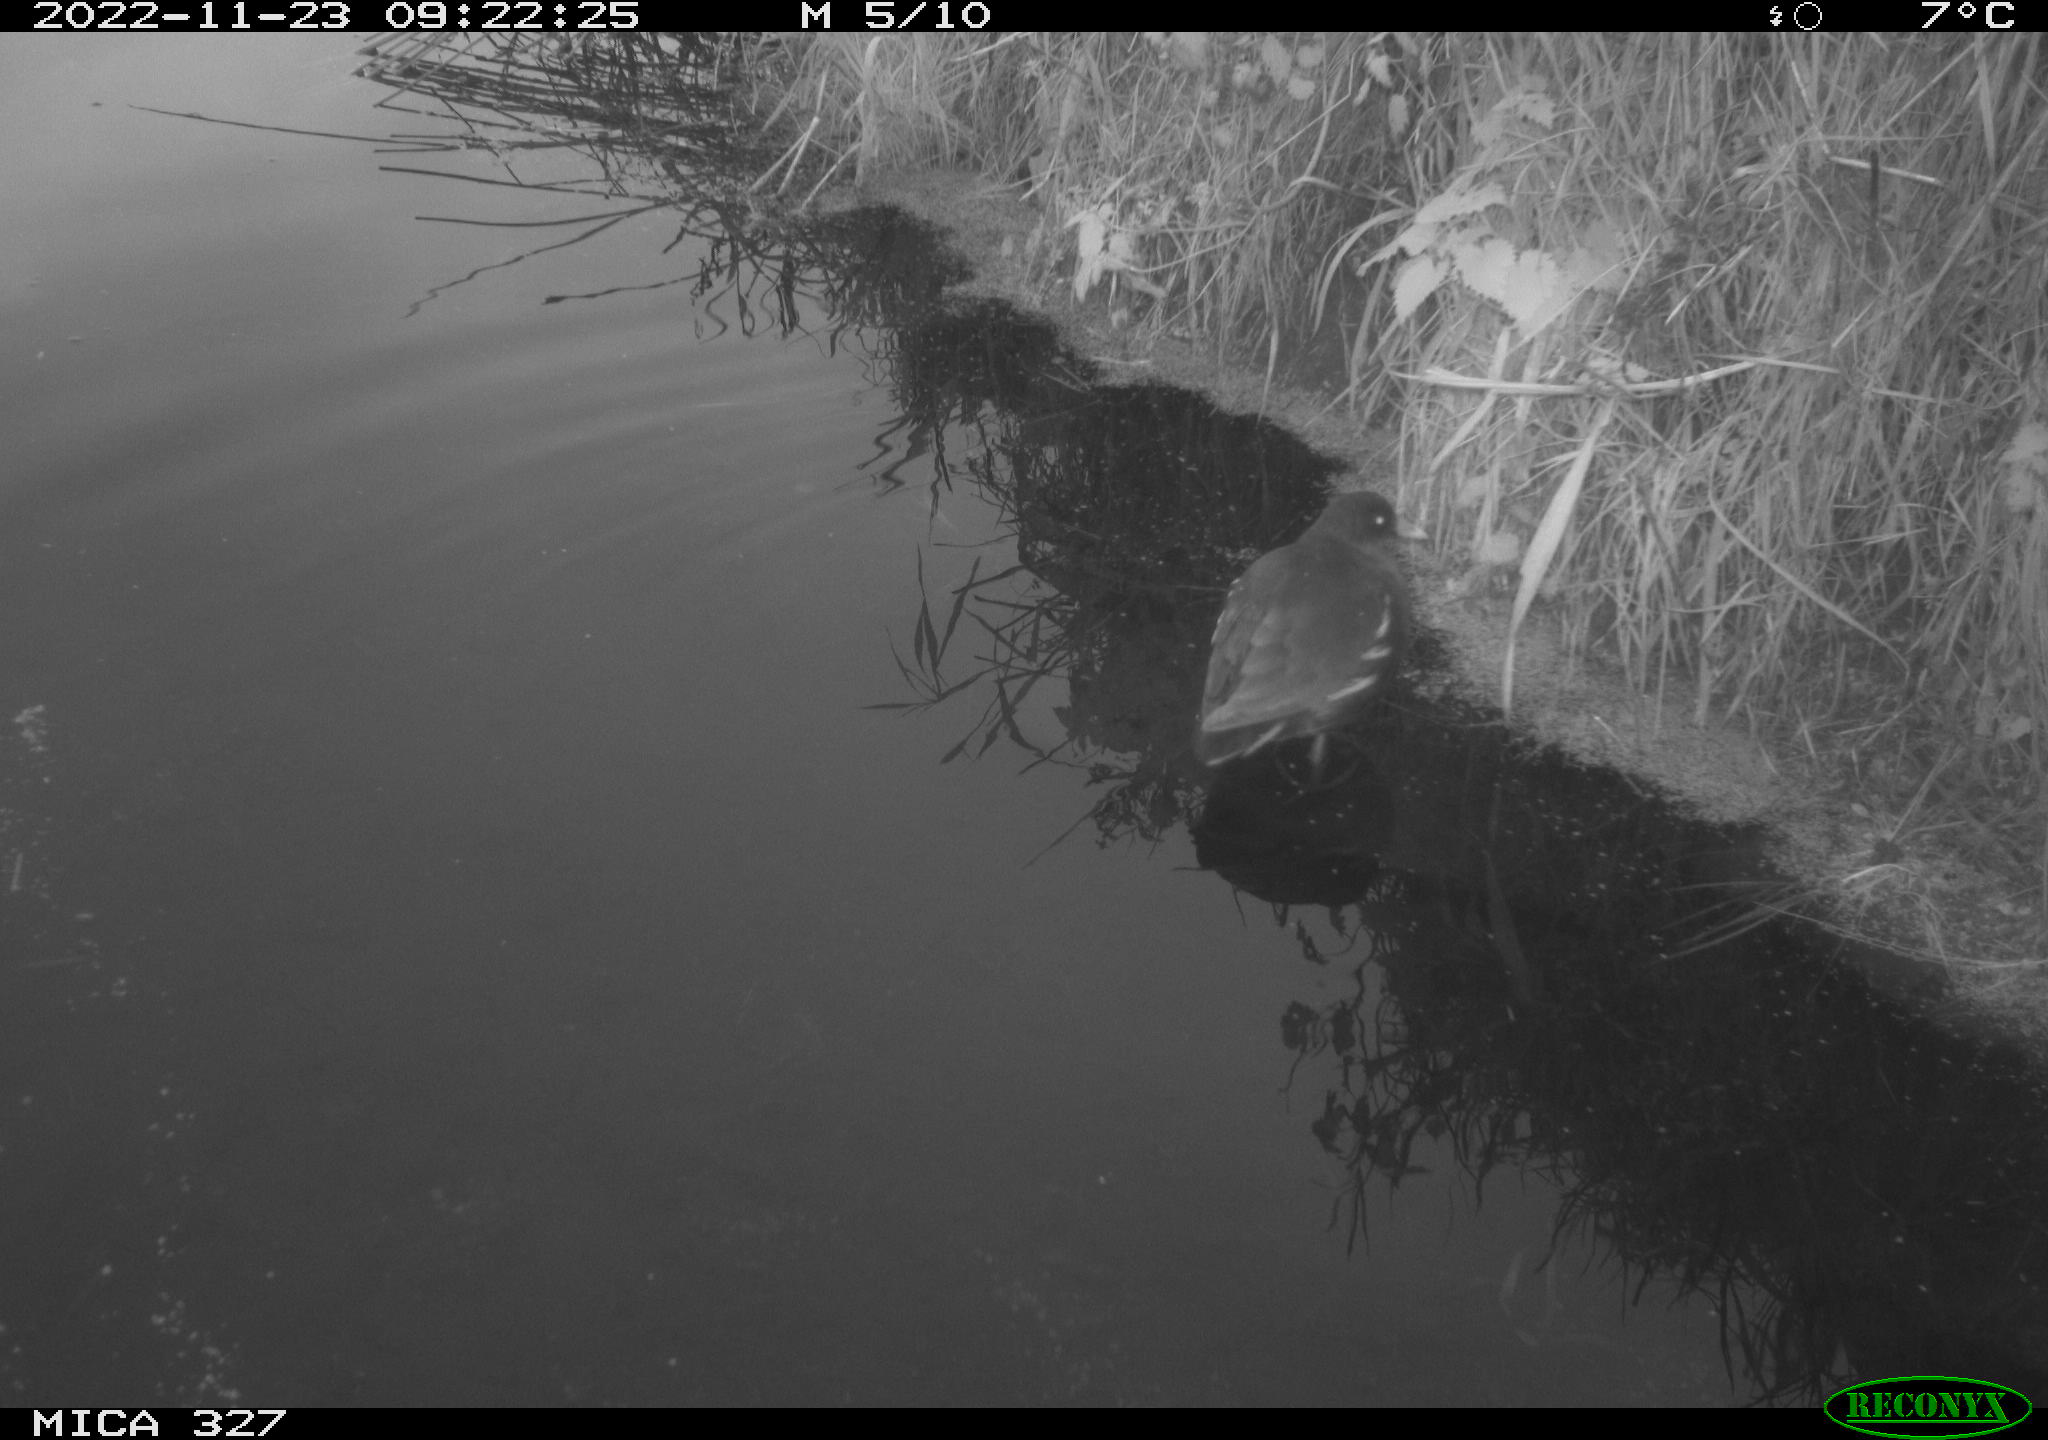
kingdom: Animalia
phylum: Chordata
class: Aves
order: Gruiformes
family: Rallidae
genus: Gallinula
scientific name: Gallinula chloropus
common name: Common moorhen
